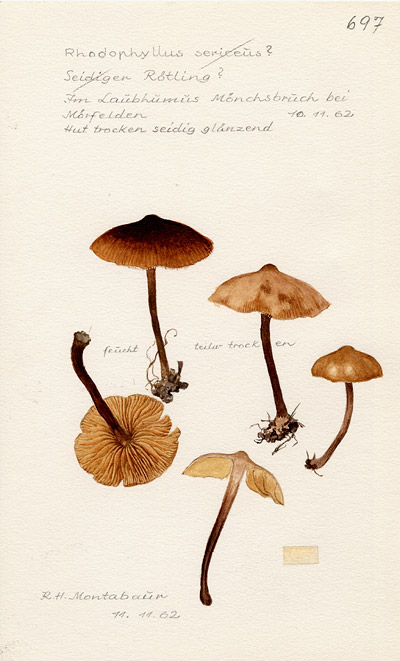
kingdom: Fungi
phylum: Basidiomycota
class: Agaricomycetes
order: Agaricales
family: Entolomataceae
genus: Entoloma
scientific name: Entoloma
